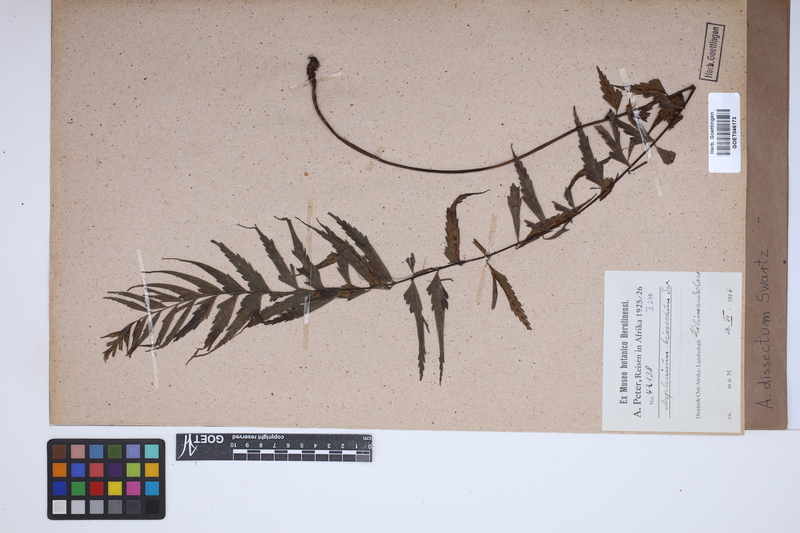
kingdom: Plantae
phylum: Tracheophyta
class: Polypodiopsida
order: Polypodiales
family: Aspleniaceae
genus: Asplenium
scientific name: Asplenium dissectum
